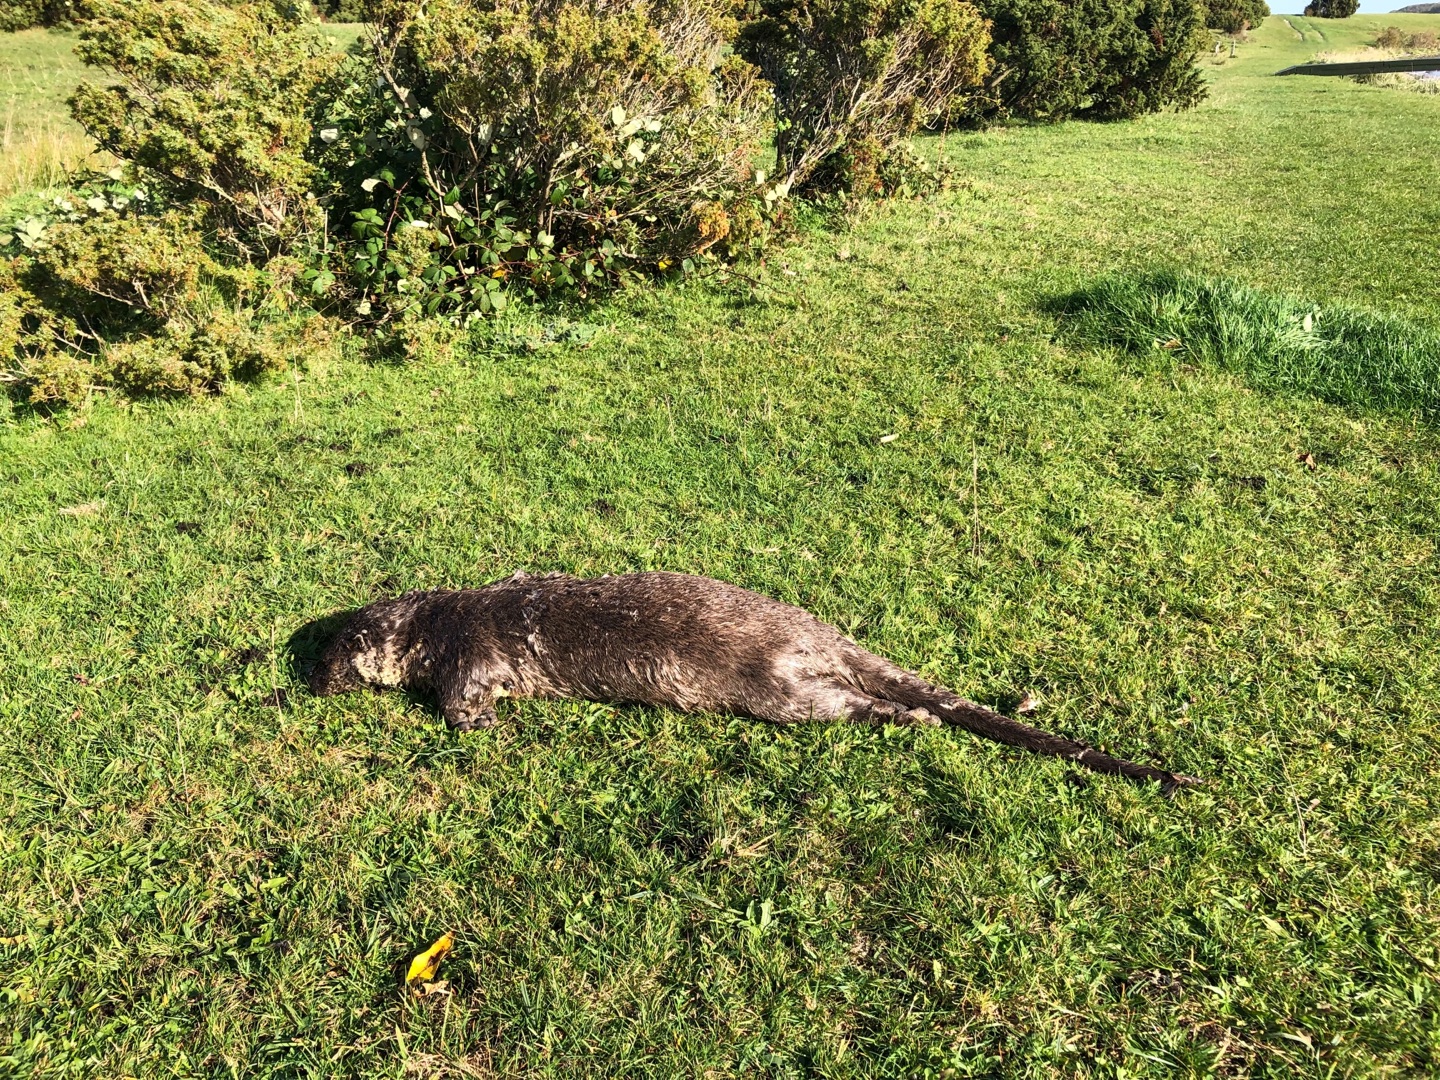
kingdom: Animalia
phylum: Chordata
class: Mammalia
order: Carnivora
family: Mustelidae
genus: Lutra
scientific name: Lutra lutra
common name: Odder
